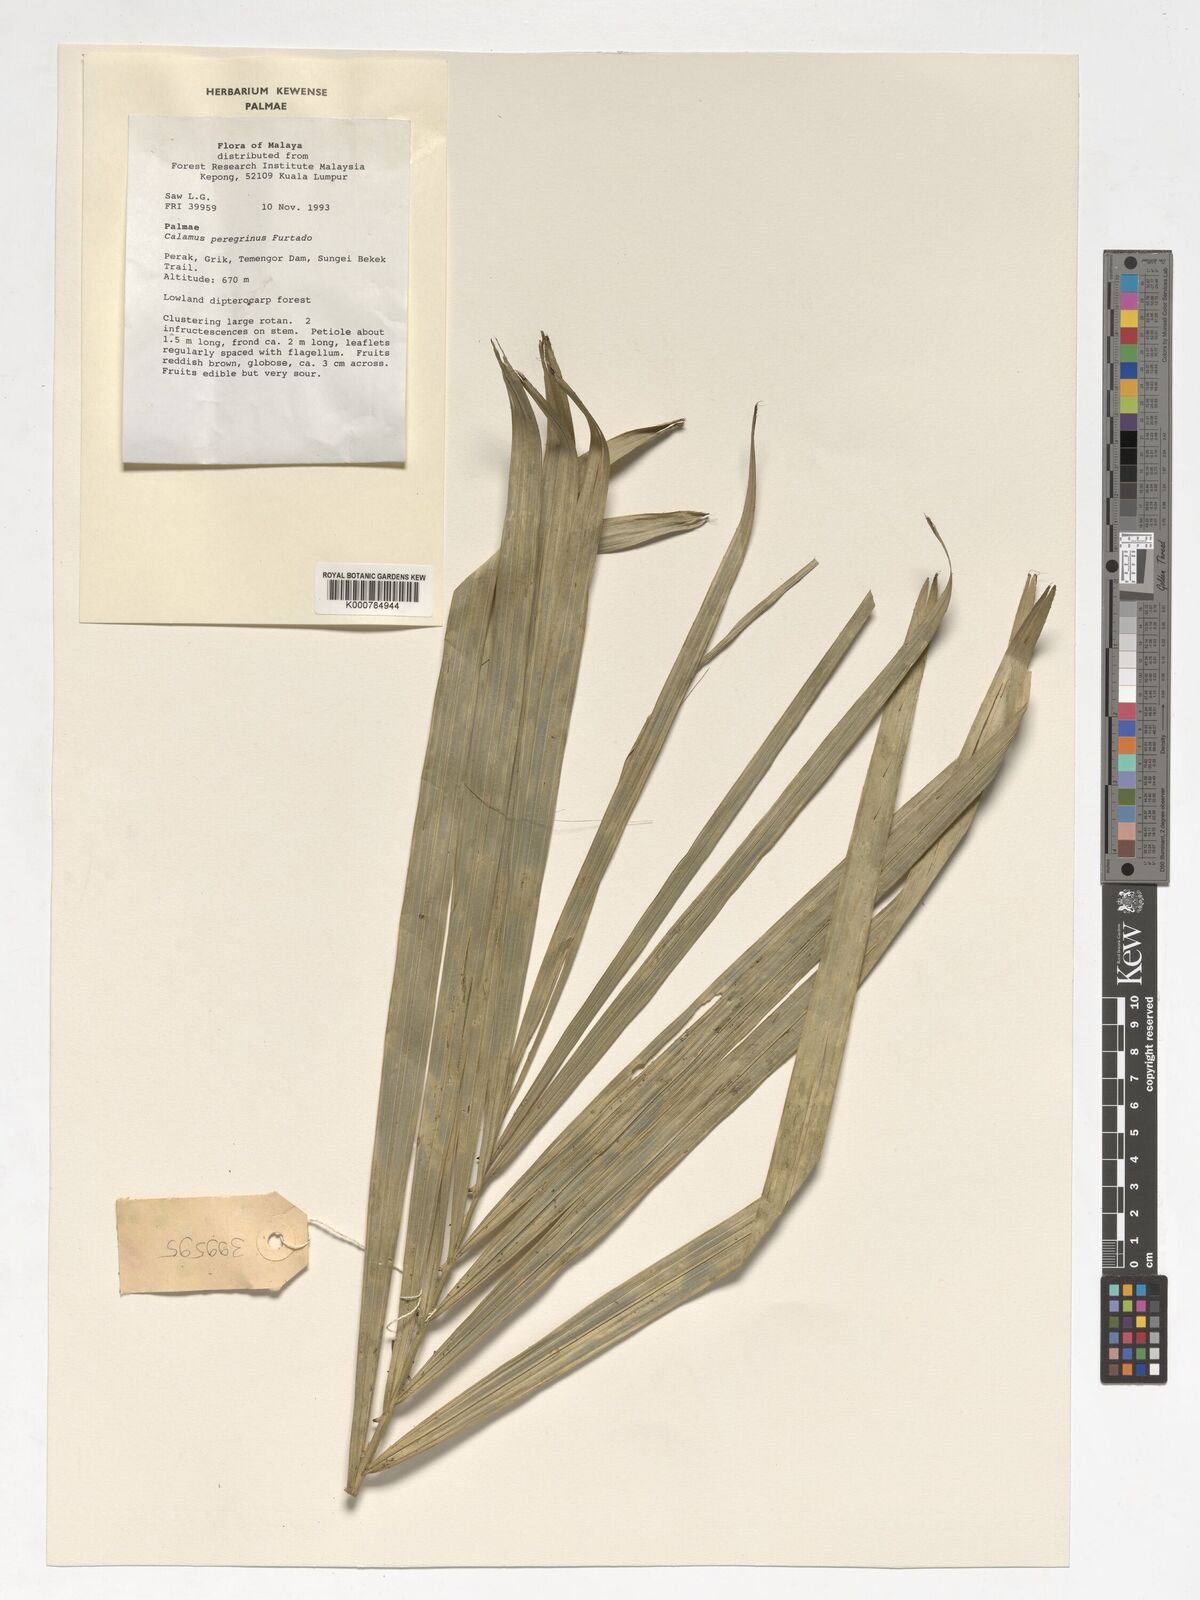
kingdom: Plantae
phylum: Tracheophyta
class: Liliopsida
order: Arecales
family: Arecaceae
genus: Calamus
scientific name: Calamus peregrinus
